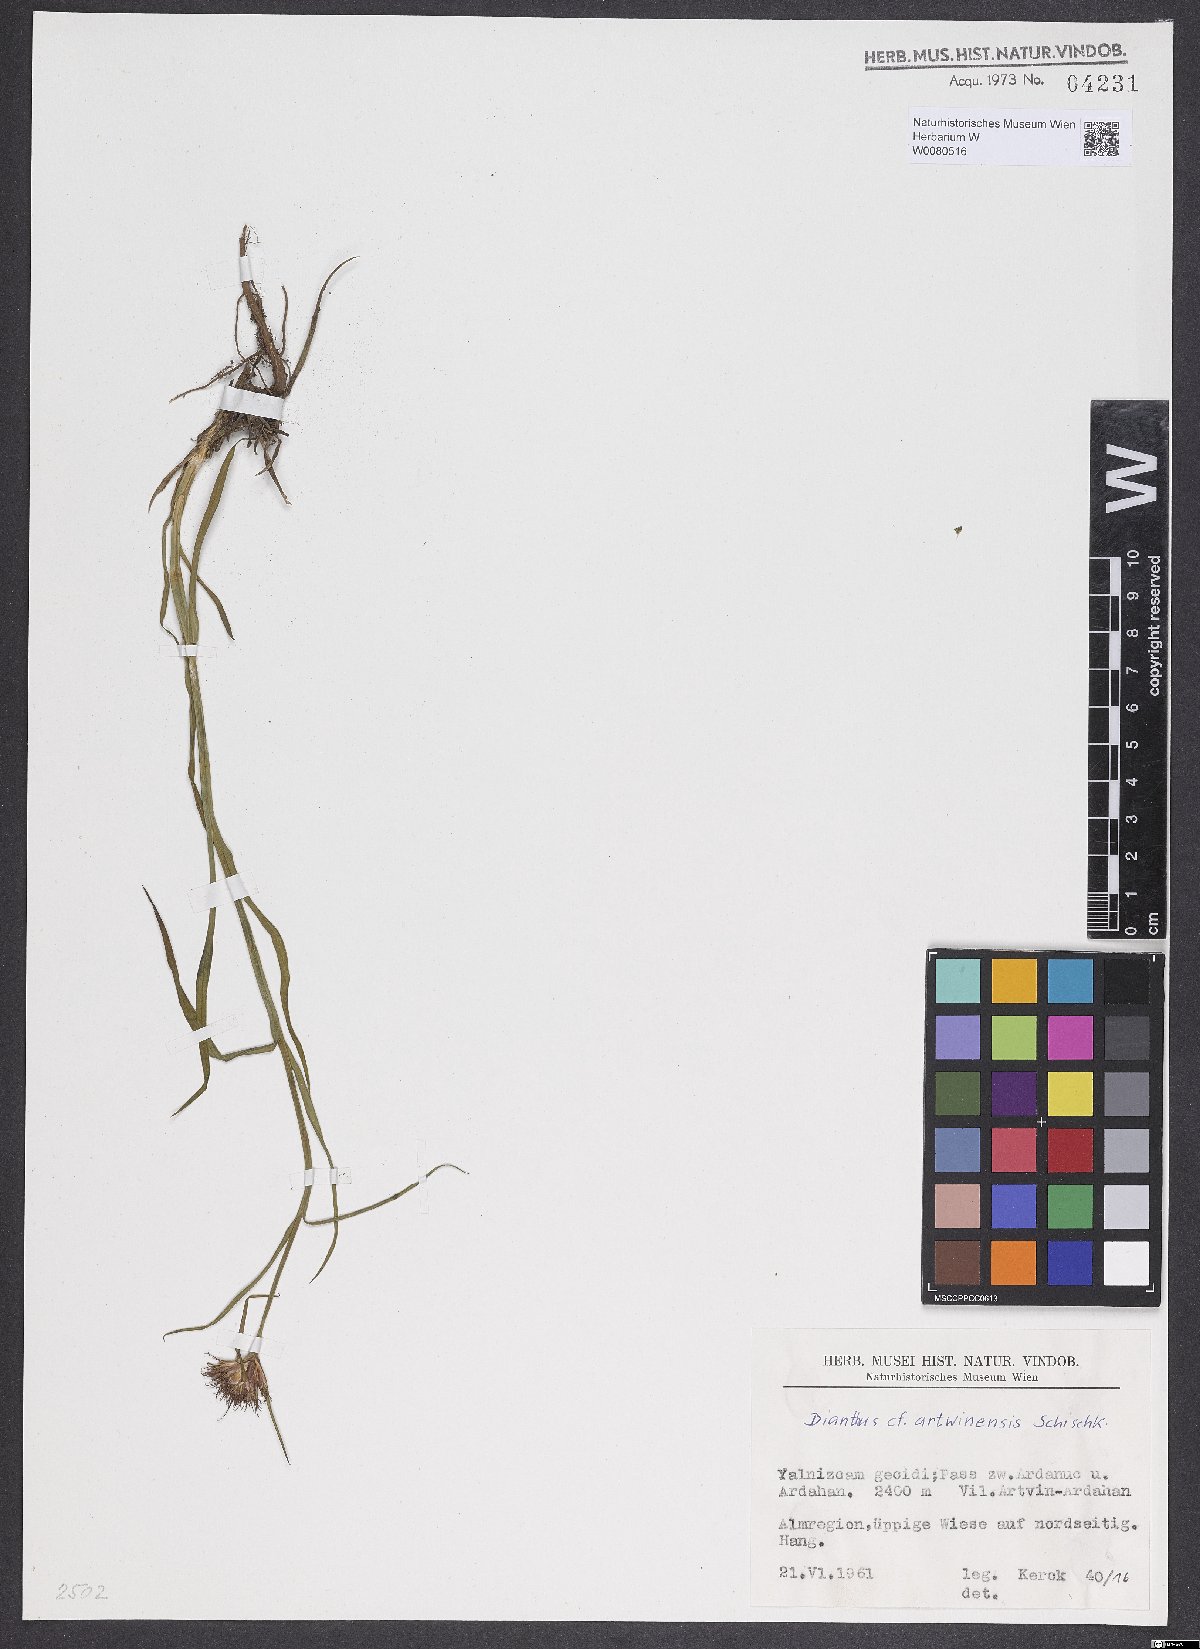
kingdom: Plantae
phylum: Tracheophyta
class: Magnoliopsida
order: Caryophyllales
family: Caryophyllaceae
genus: Dianthus
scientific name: Dianthus carmelitarum
